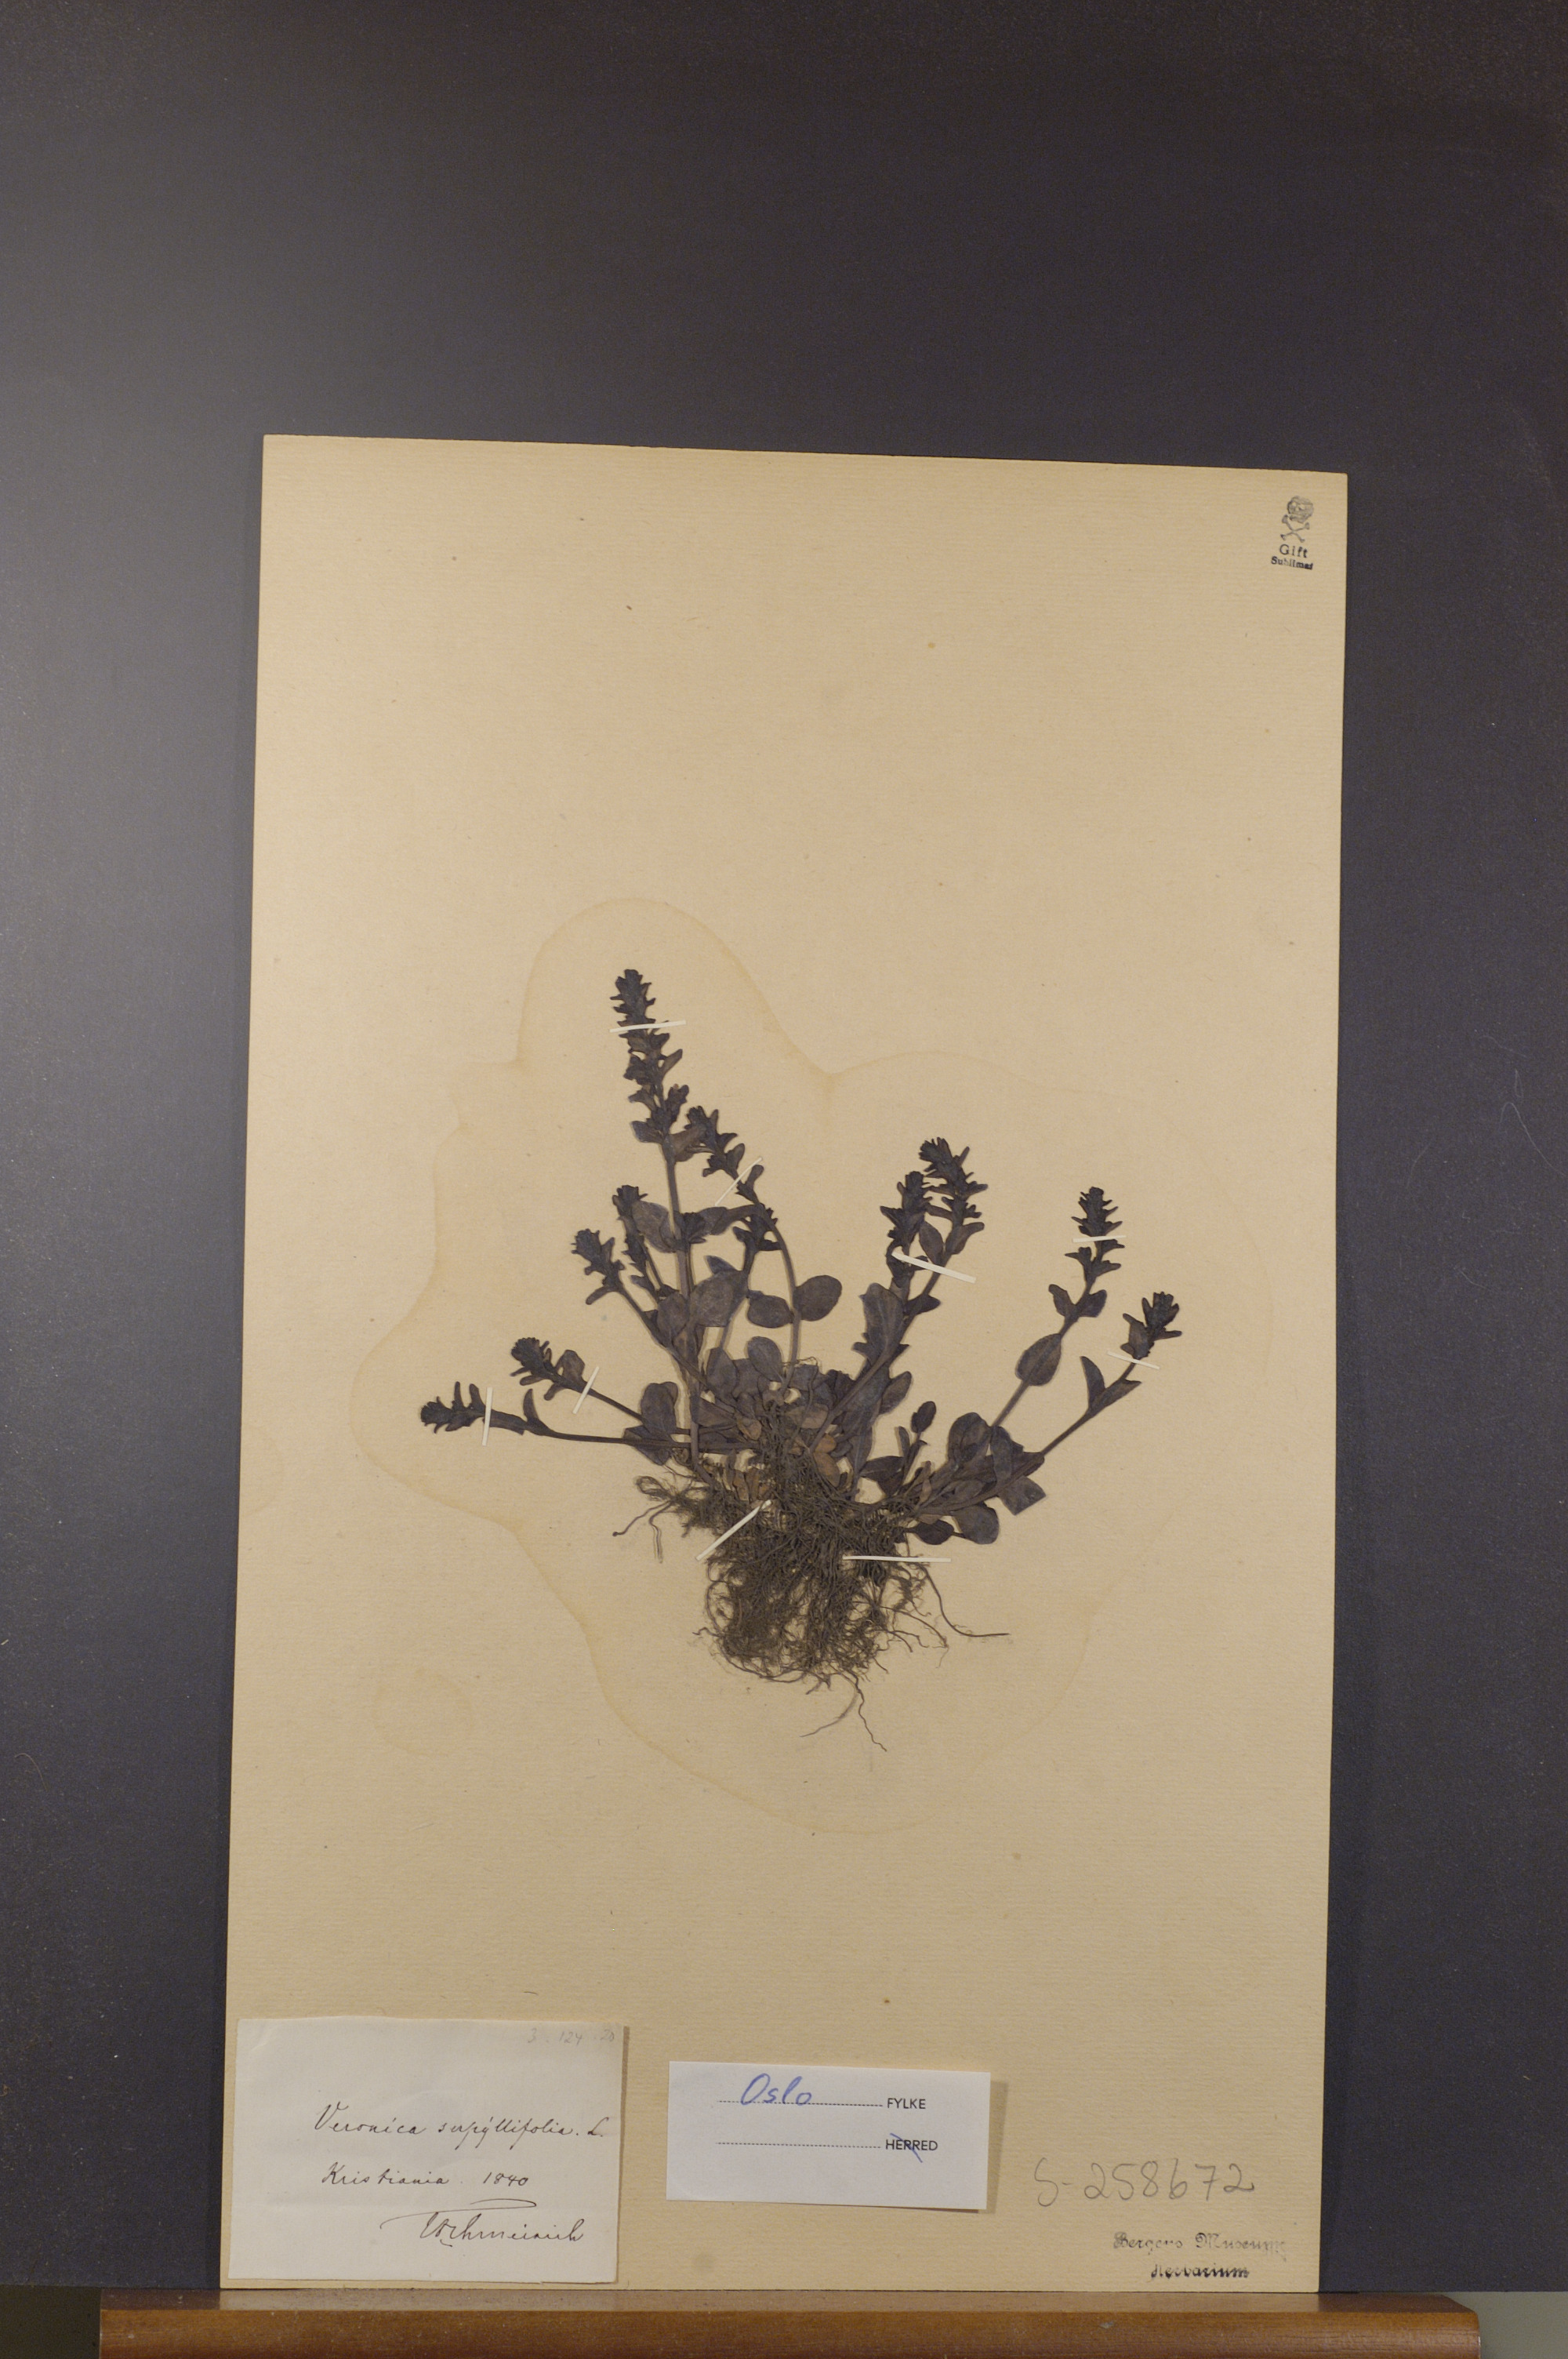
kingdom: Plantae
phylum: Tracheophyta
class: Magnoliopsida
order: Lamiales
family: Plantaginaceae
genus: Veronica
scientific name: Veronica serpyllifolia
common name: Thyme-leaved speedwell
